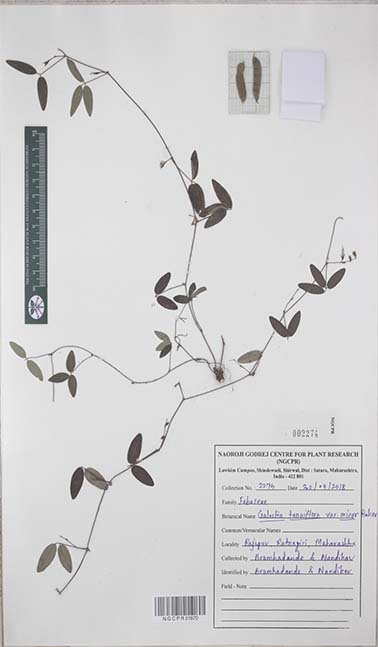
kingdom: Plantae
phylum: Tracheophyta
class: Magnoliopsida
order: Fabales
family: Fabaceae
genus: Galactia
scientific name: Galactia striata
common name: Florida hammock milkpea
